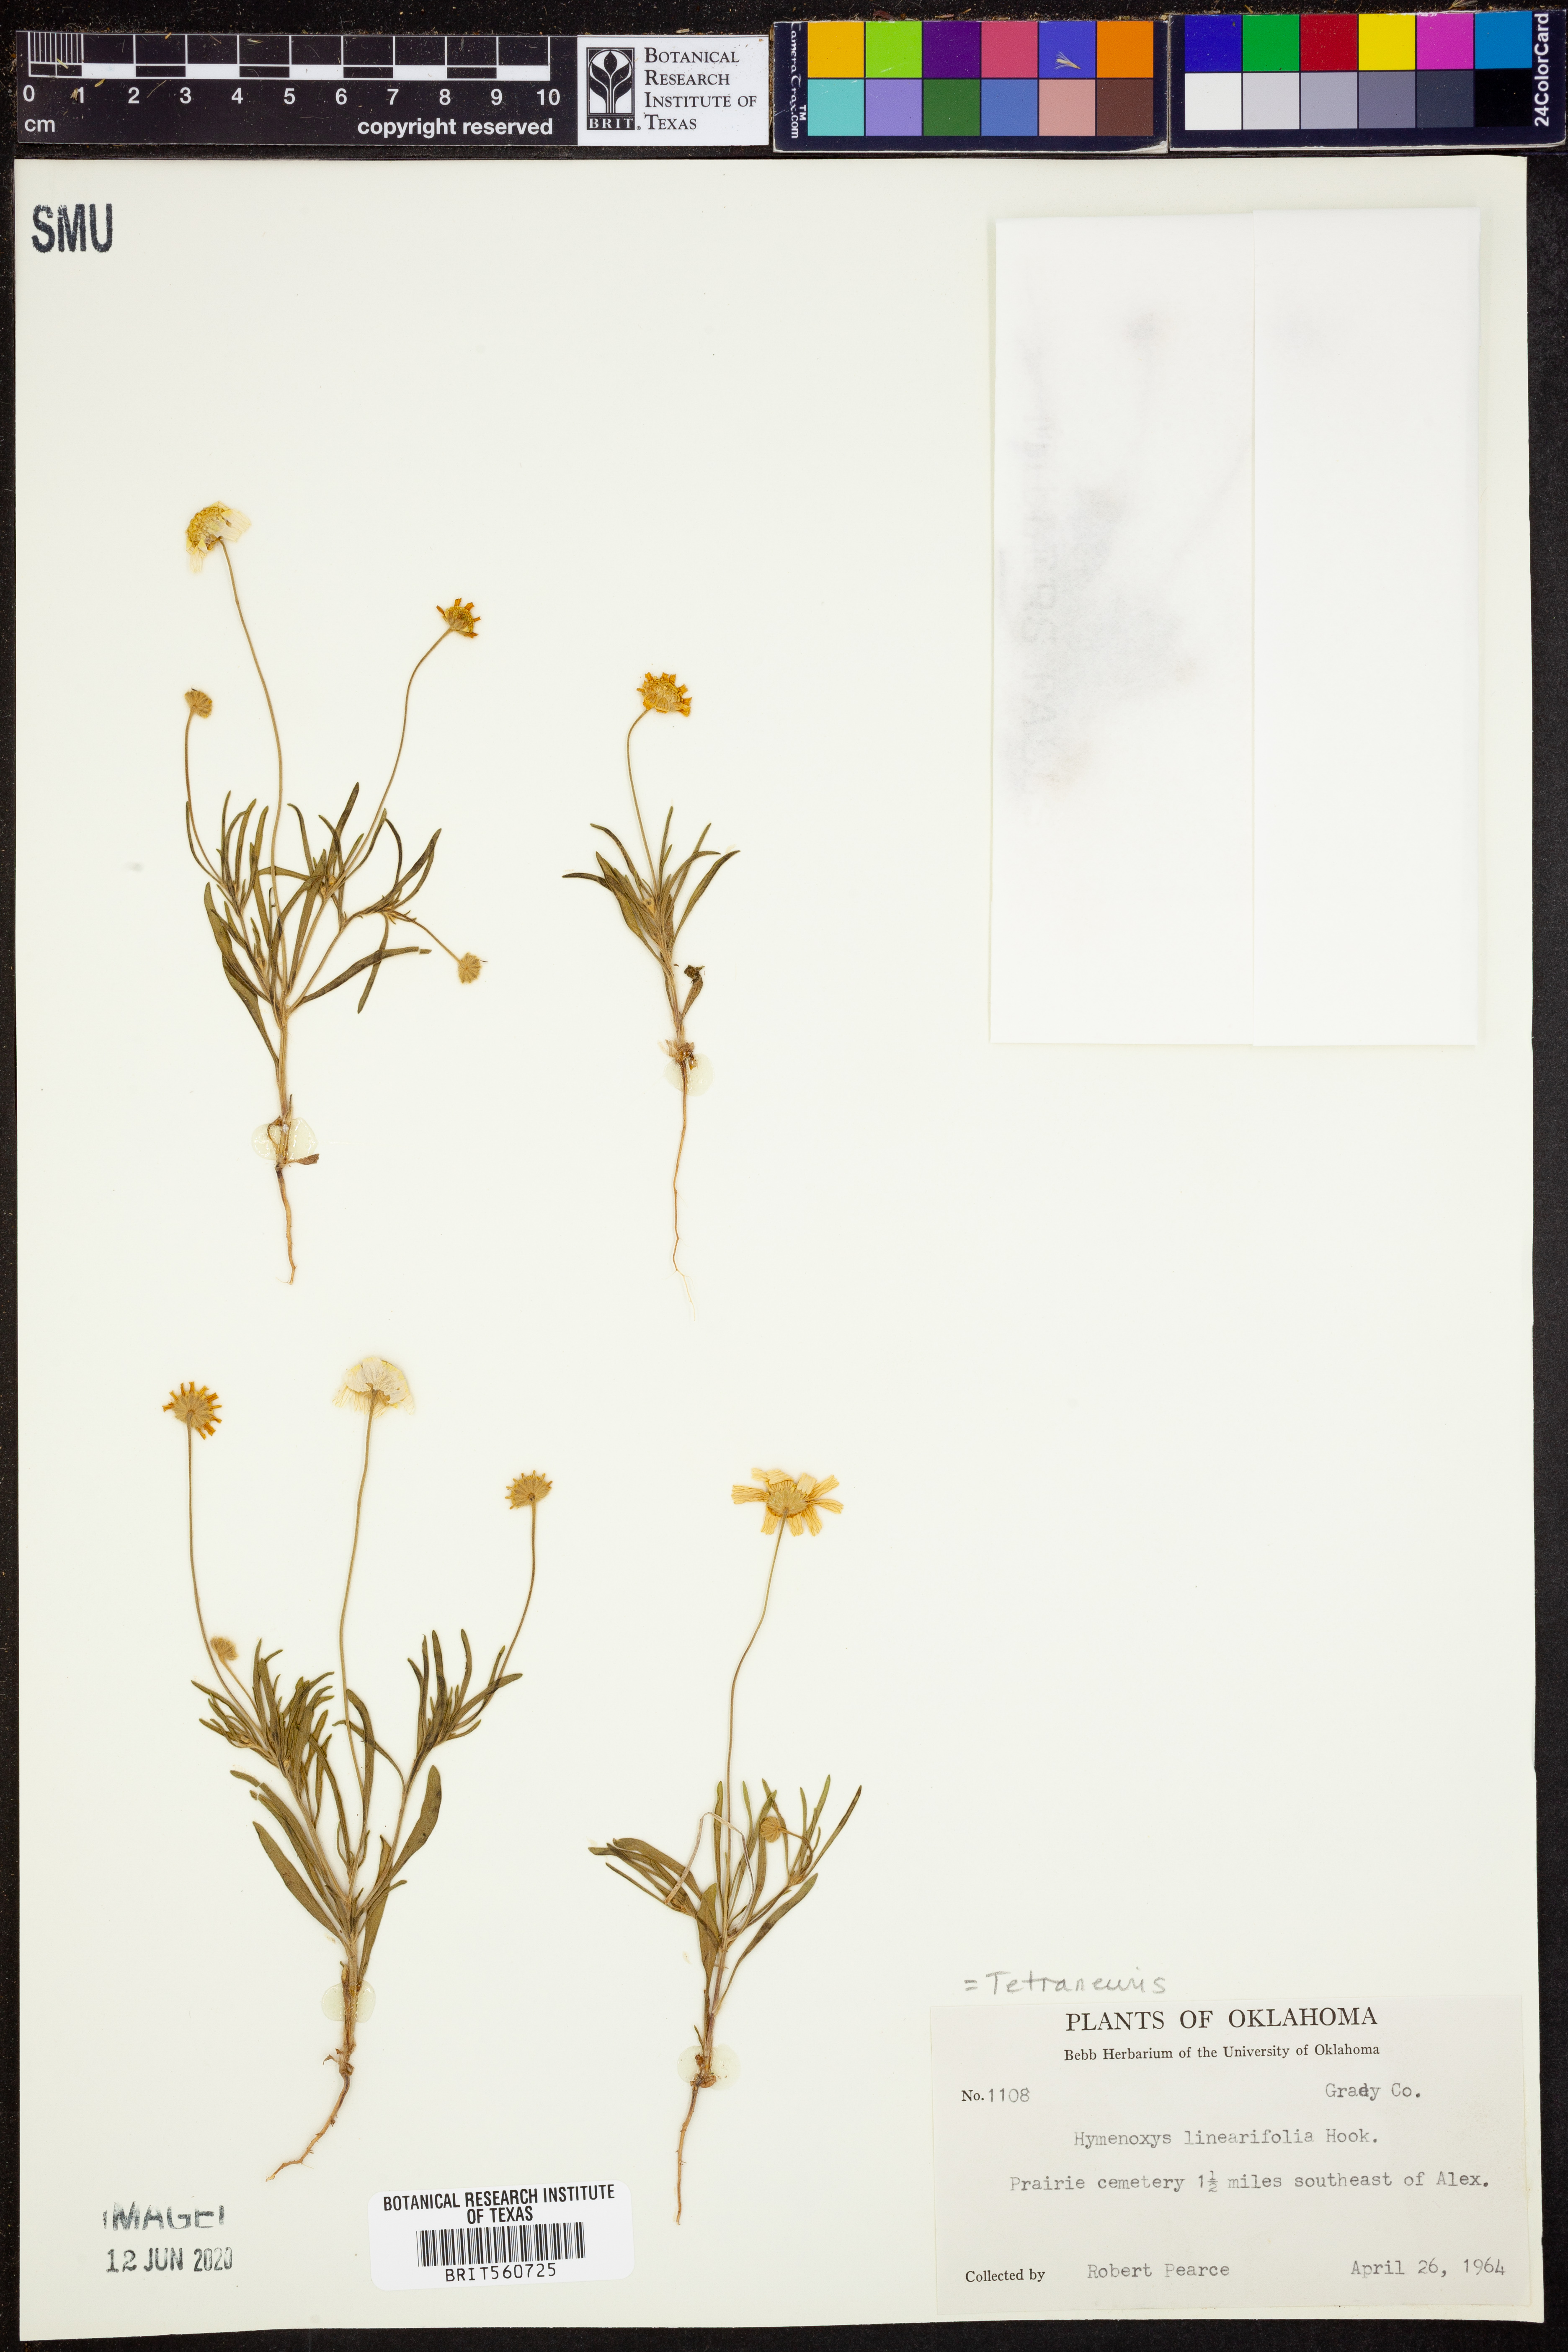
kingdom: Plantae
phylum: Tracheophyta
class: Magnoliopsida
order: Asterales
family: Asteraceae
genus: Tetraneuris
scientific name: Tetraneuris linearifolia
